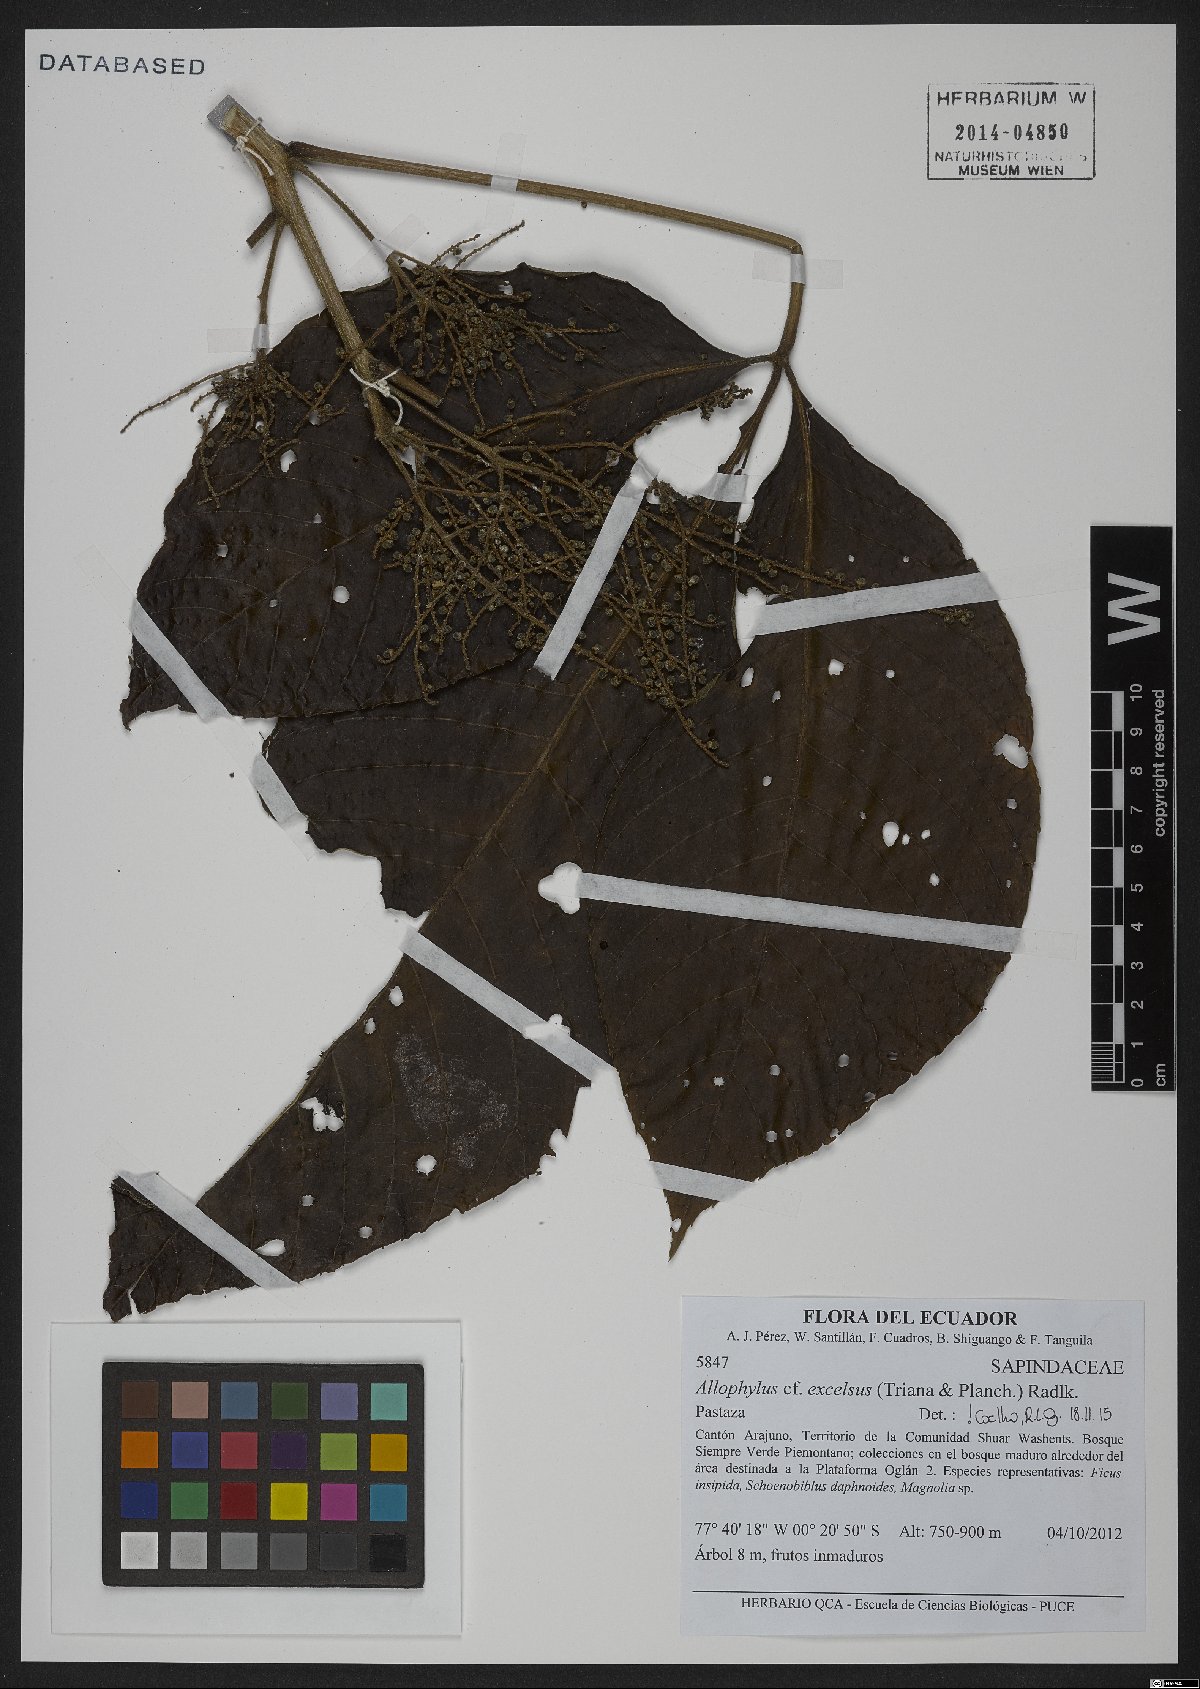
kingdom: Plantae
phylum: Tracheophyta
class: Magnoliopsida
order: Sapindales
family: Sapindaceae
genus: Allophylus
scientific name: Allophylus excelsus
